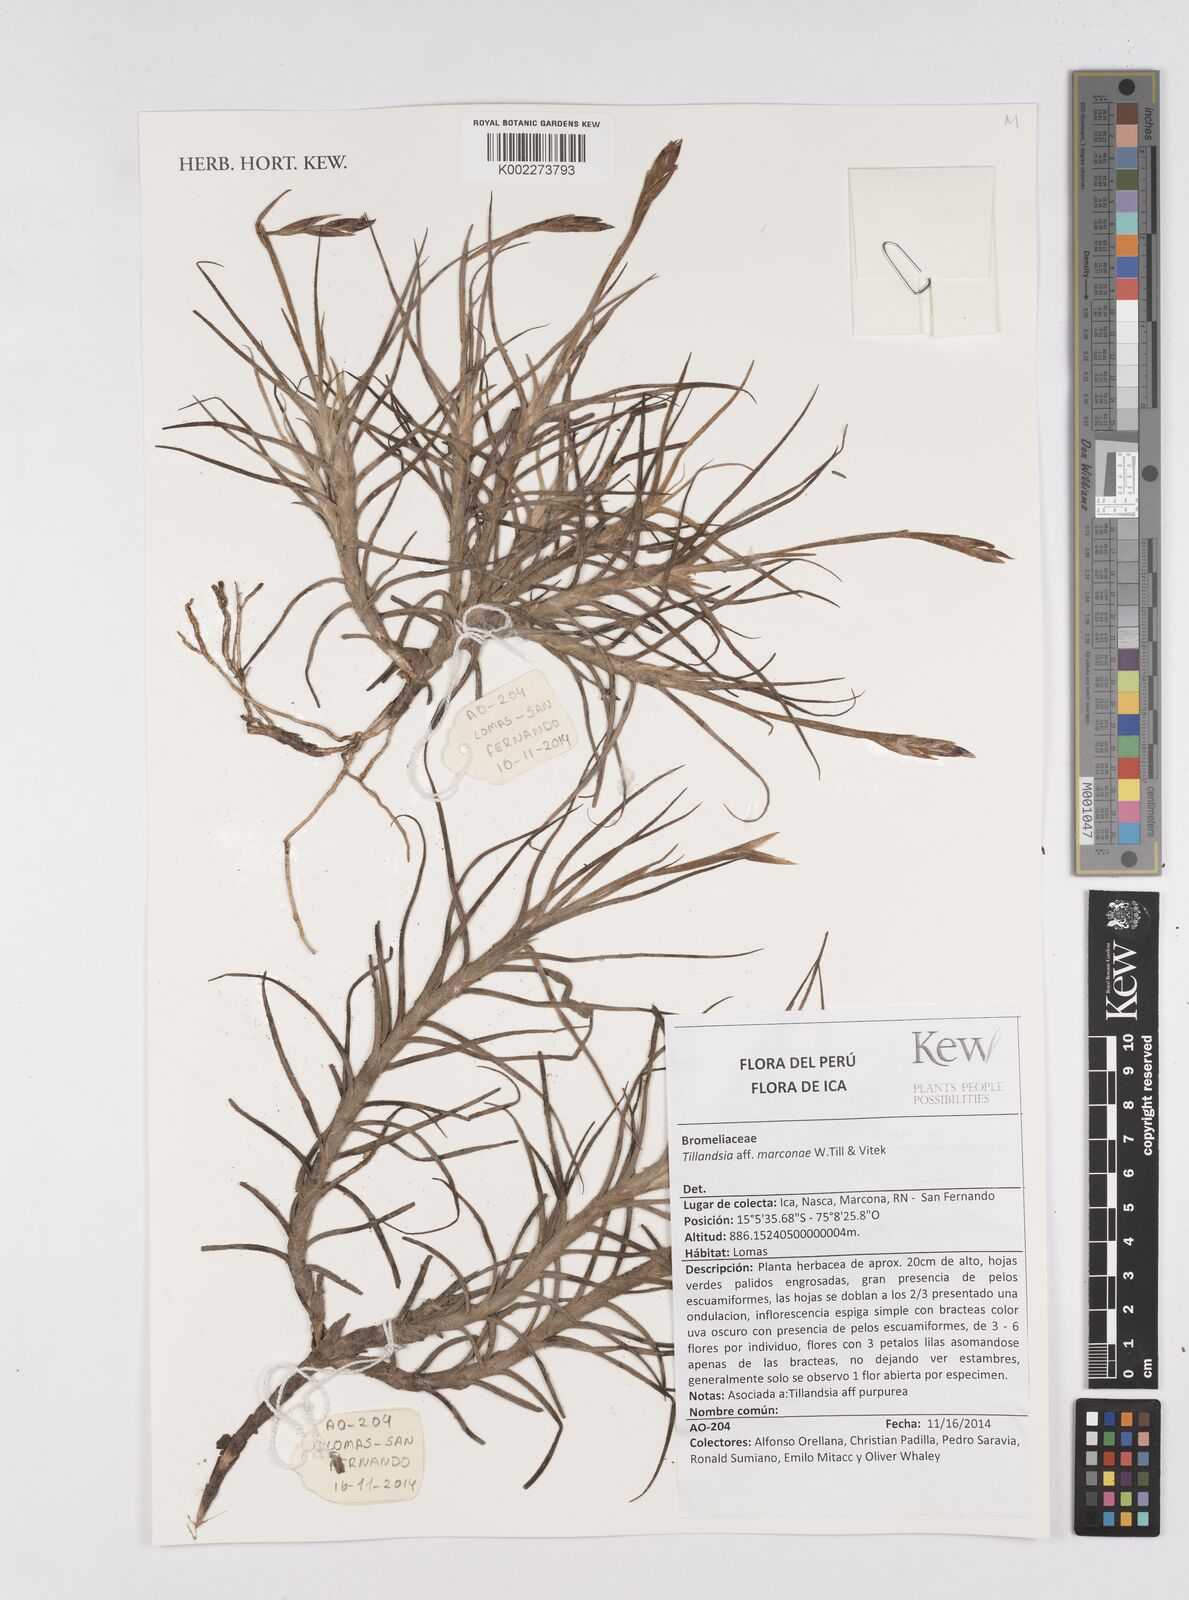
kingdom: Plantae
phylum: Tracheophyta
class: Liliopsida
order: Poales
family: Bromeliaceae
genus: Tillandsia
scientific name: Tillandsia marconae
